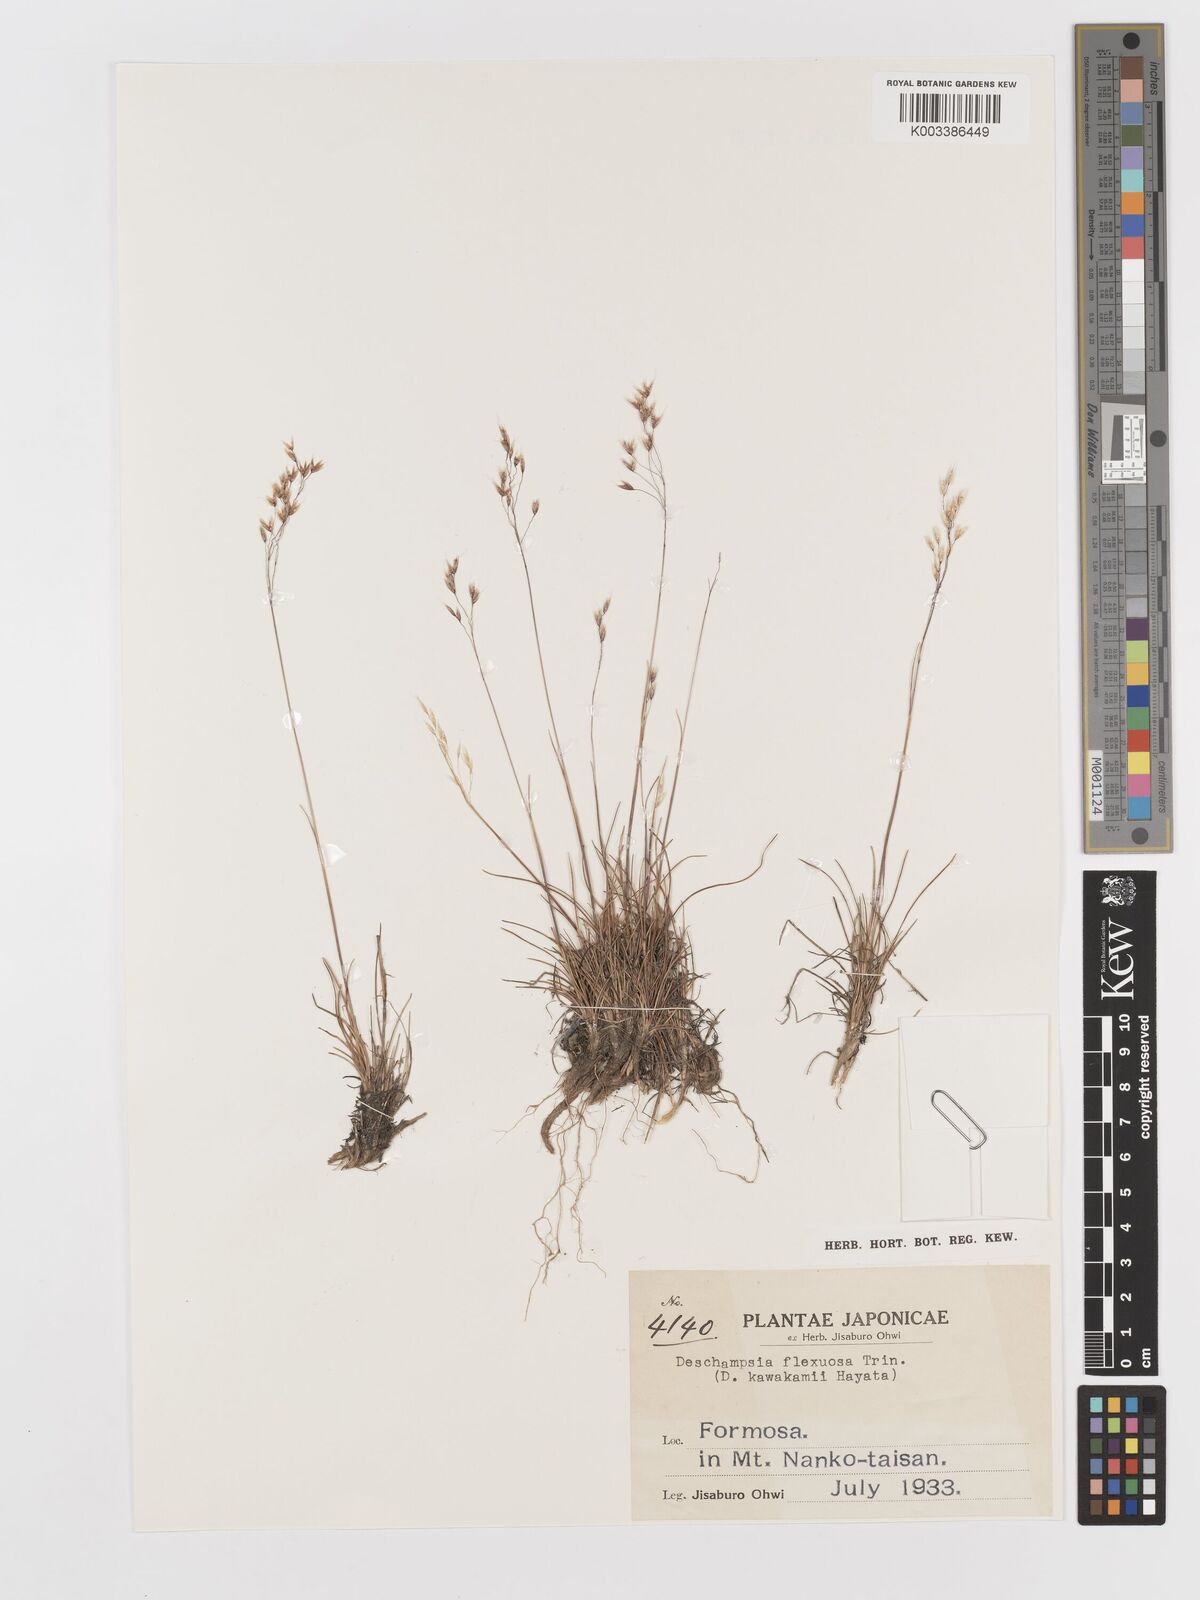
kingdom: Plantae
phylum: Tracheophyta
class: Liliopsida
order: Poales
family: Poaceae
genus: Avenella
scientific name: Avenella flexuosa
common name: Wavy hairgrass
